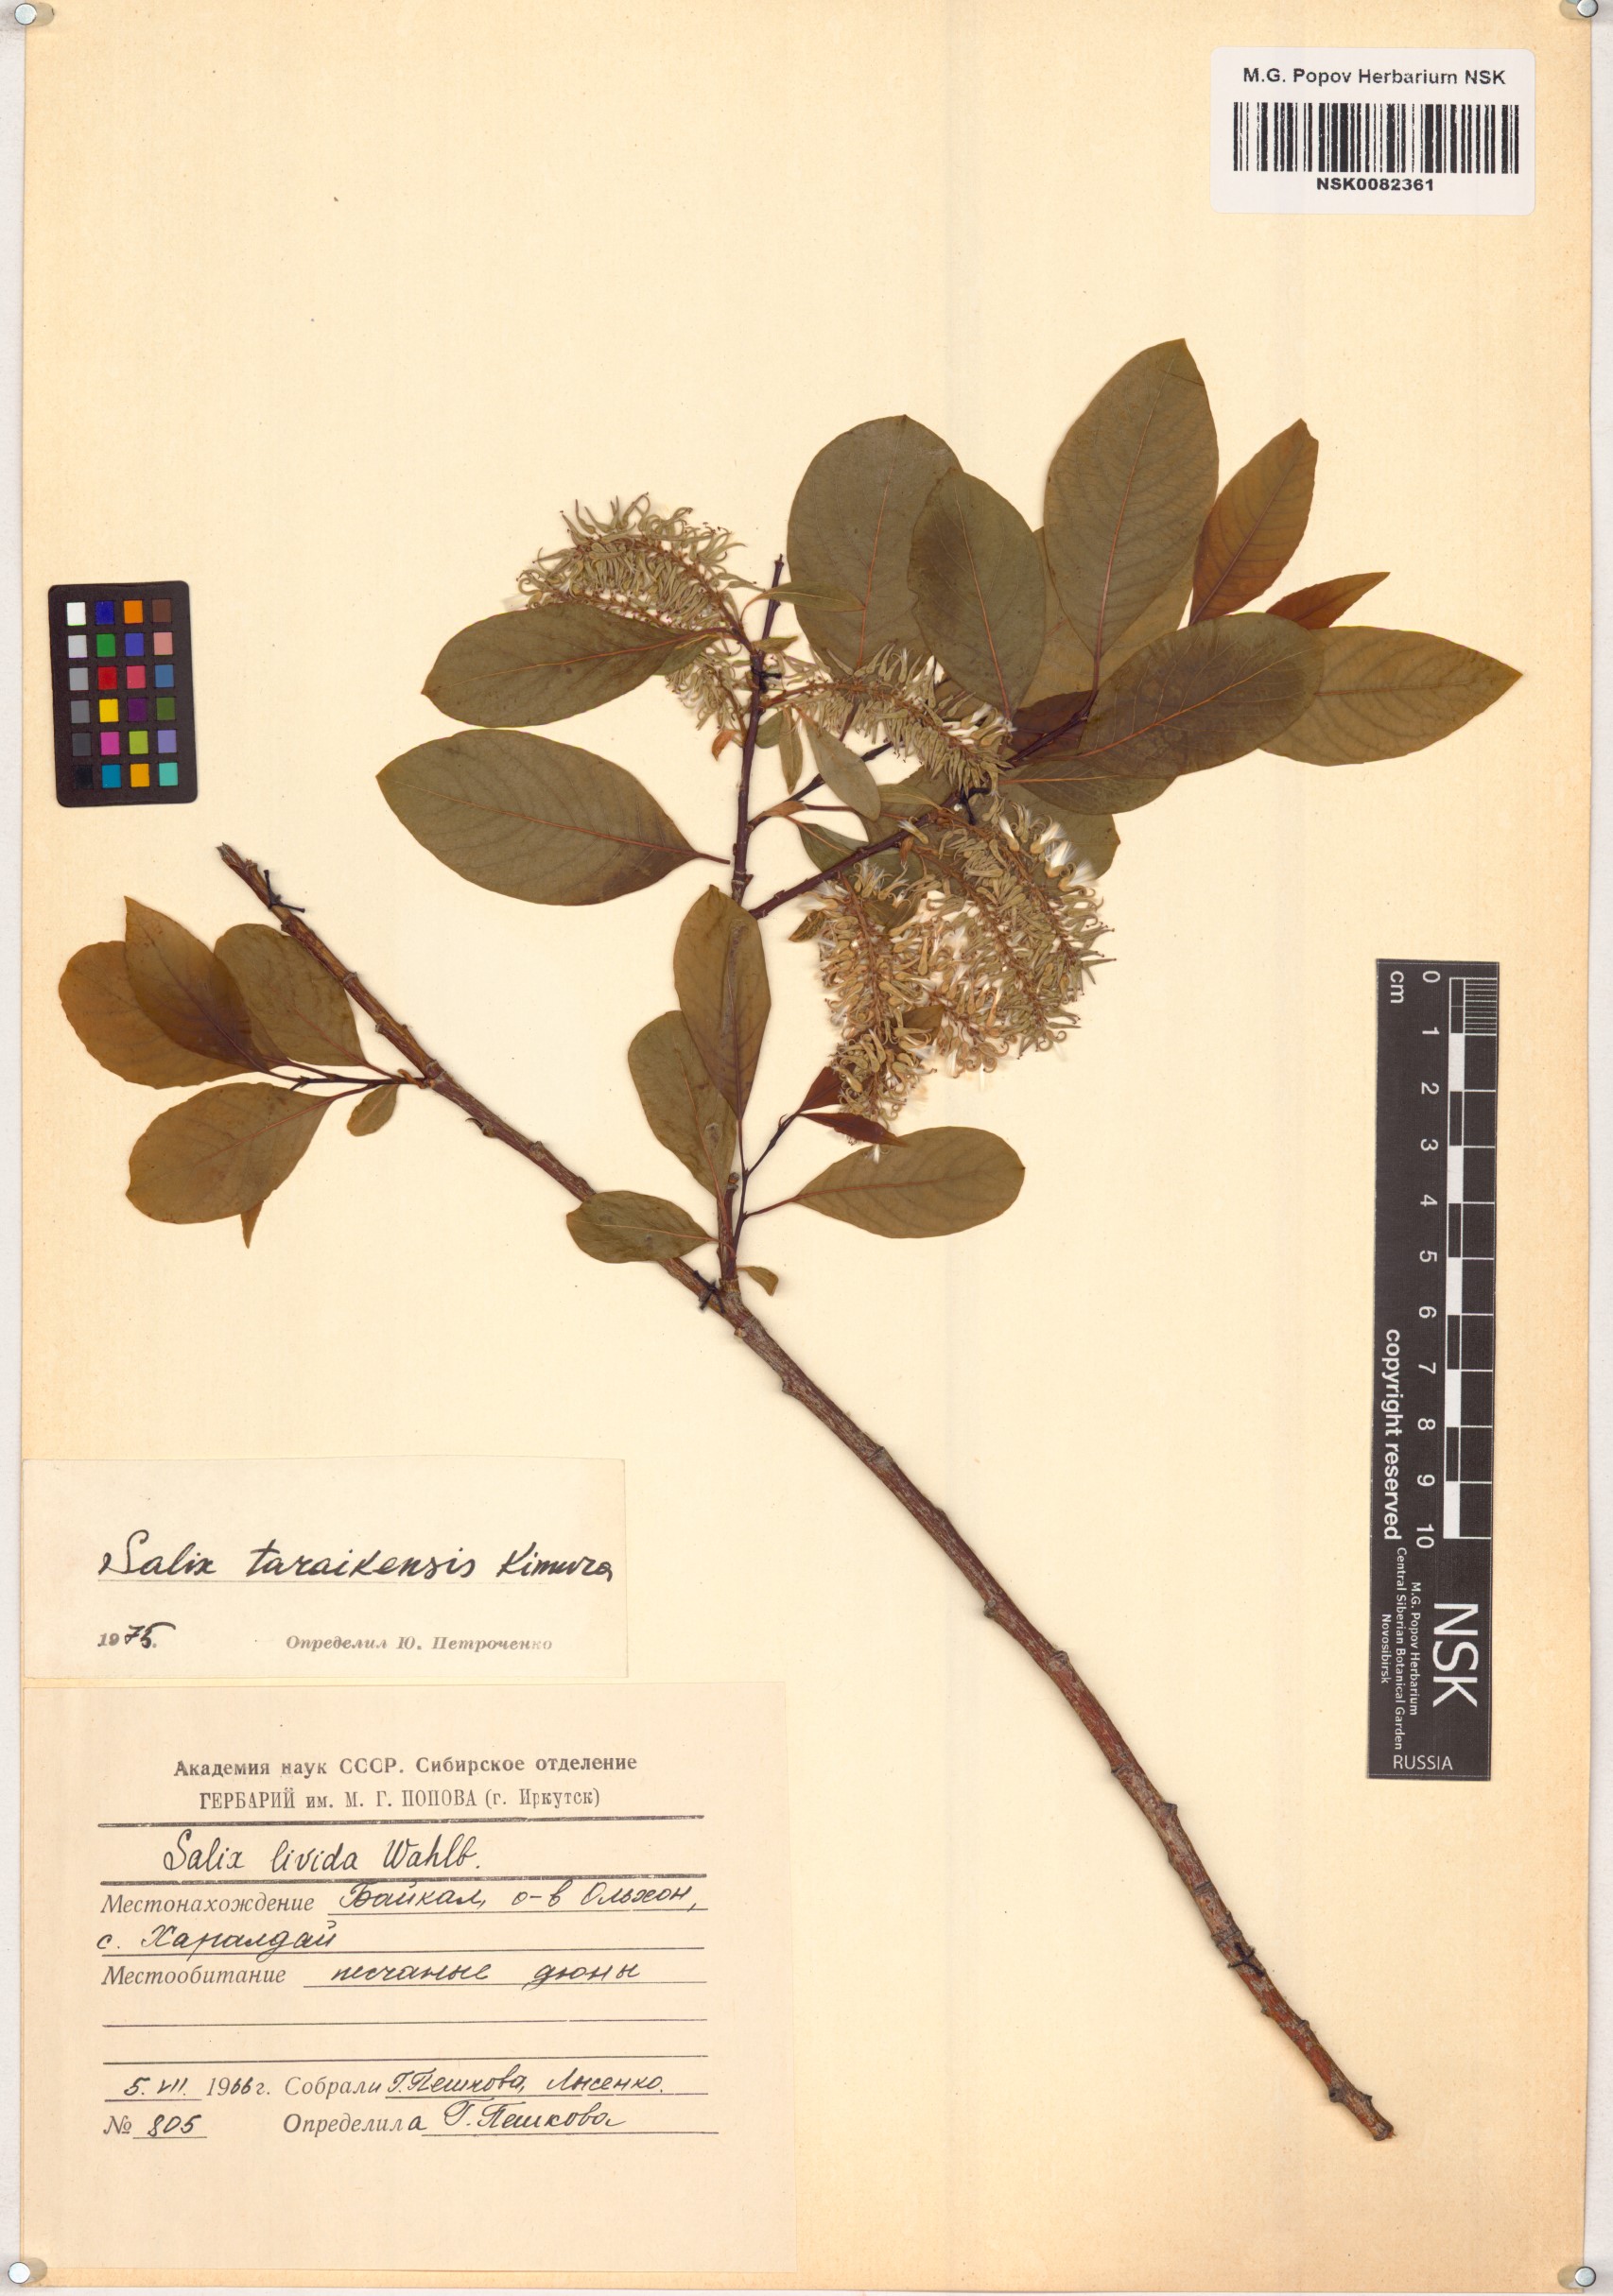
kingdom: Plantae
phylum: Tracheophyta
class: Magnoliopsida
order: Malpighiales
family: Salicaceae
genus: Salix
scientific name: Salix taraikensis
